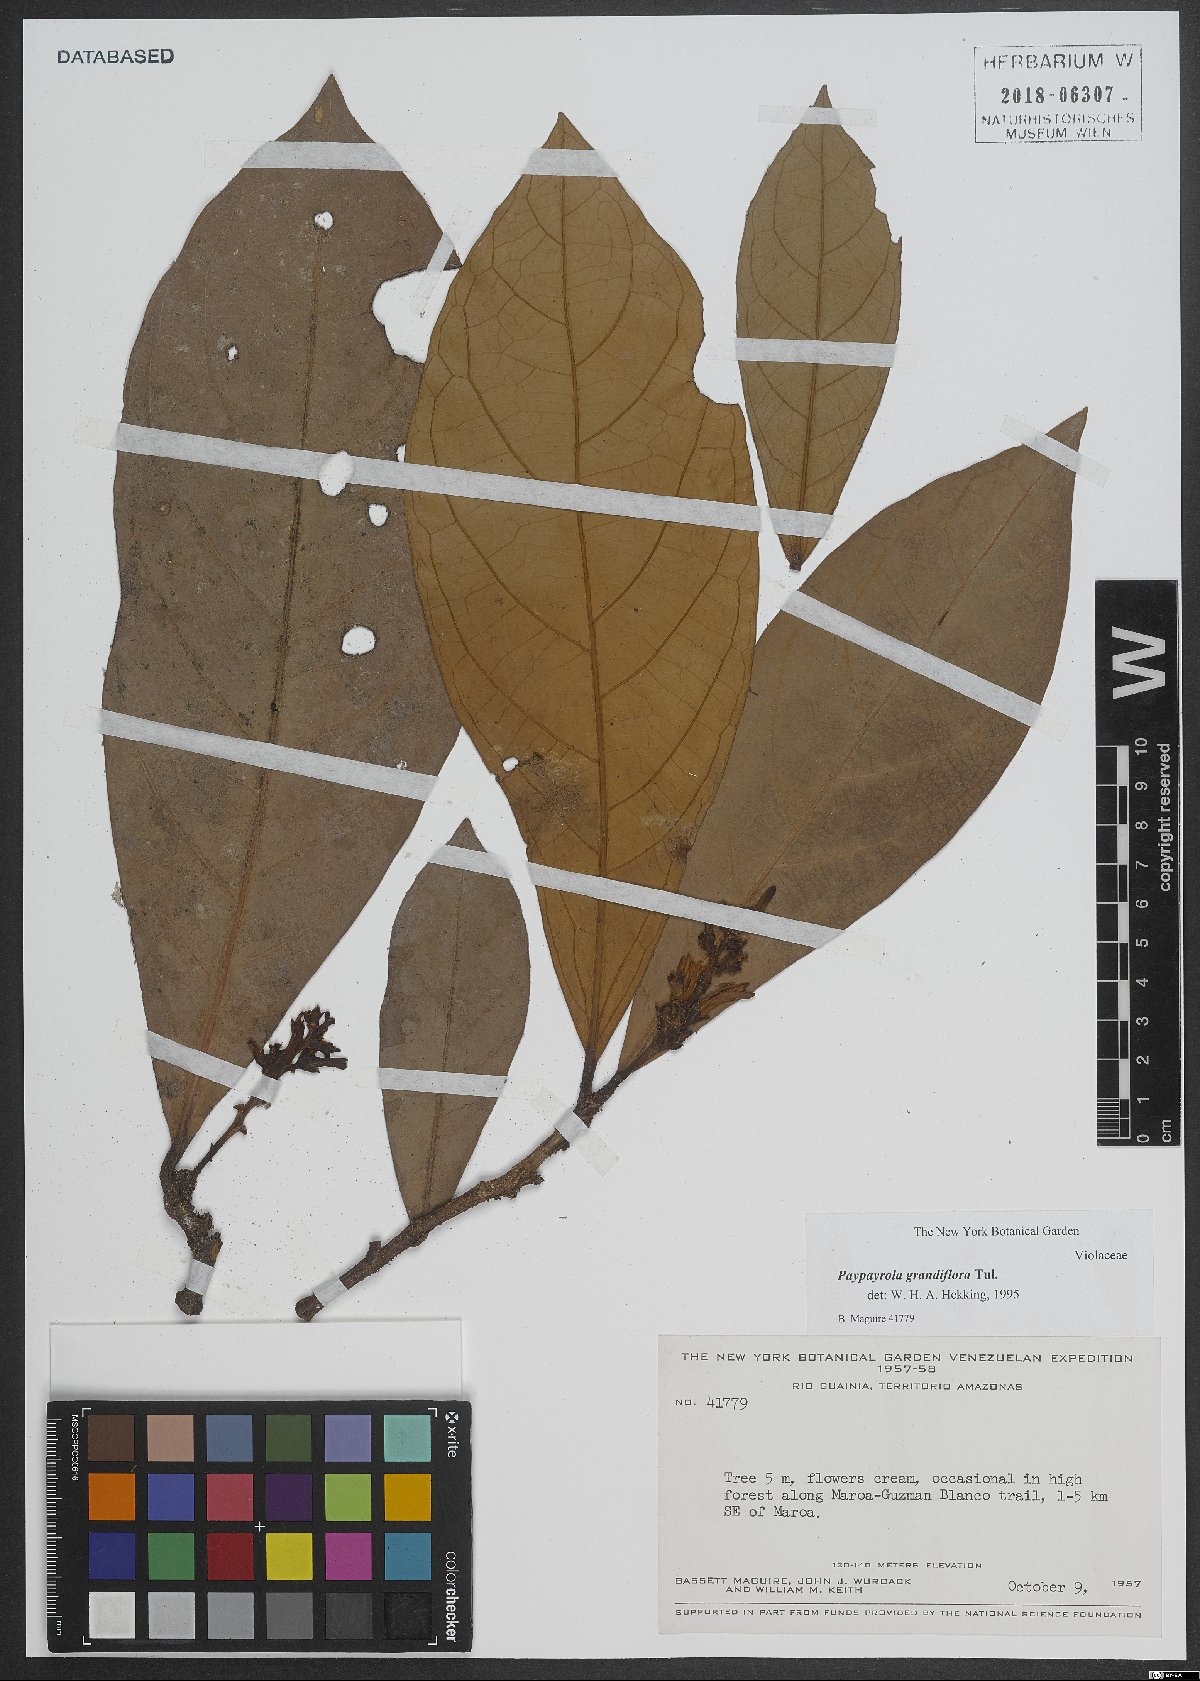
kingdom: Plantae
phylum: Tracheophyta
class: Magnoliopsida
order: Malpighiales
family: Violaceae
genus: Paypayrola
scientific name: Paypayrola grandiflora
